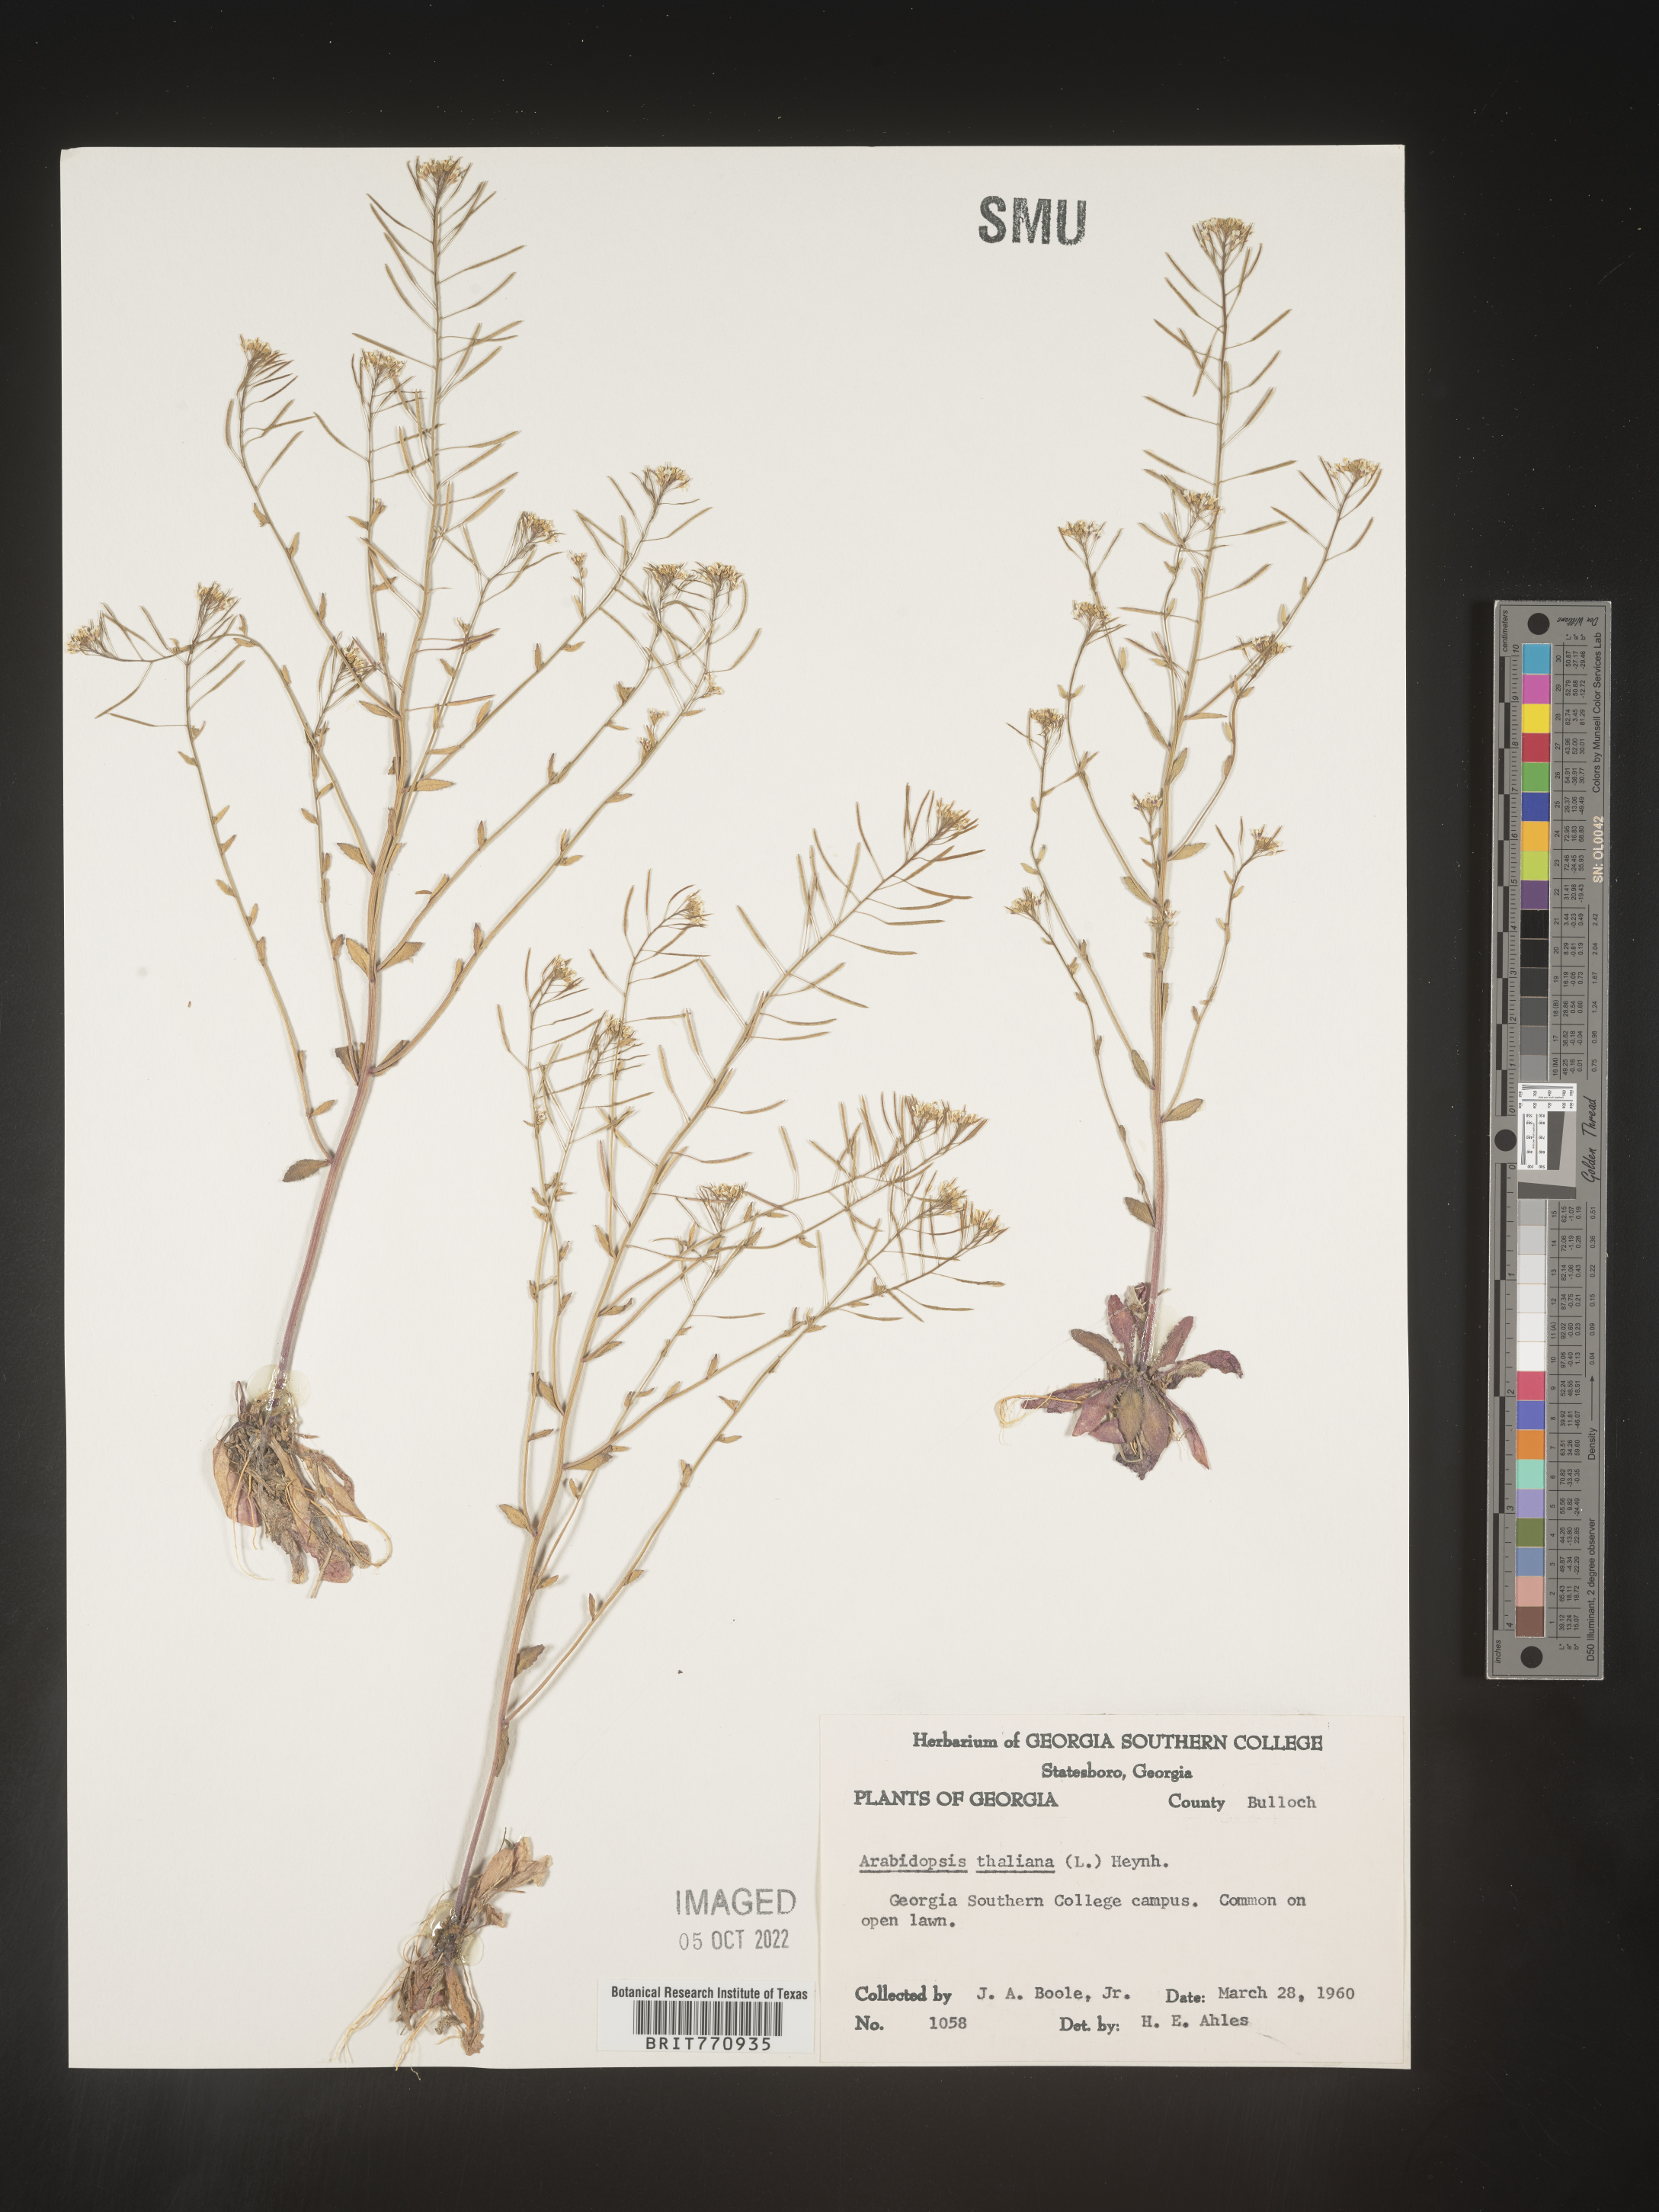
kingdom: Plantae
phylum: Tracheophyta
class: Magnoliopsida
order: Brassicales
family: Brassicaceae
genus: Arabidopsis
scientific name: Arabidopsis thaliana
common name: Thale cress
